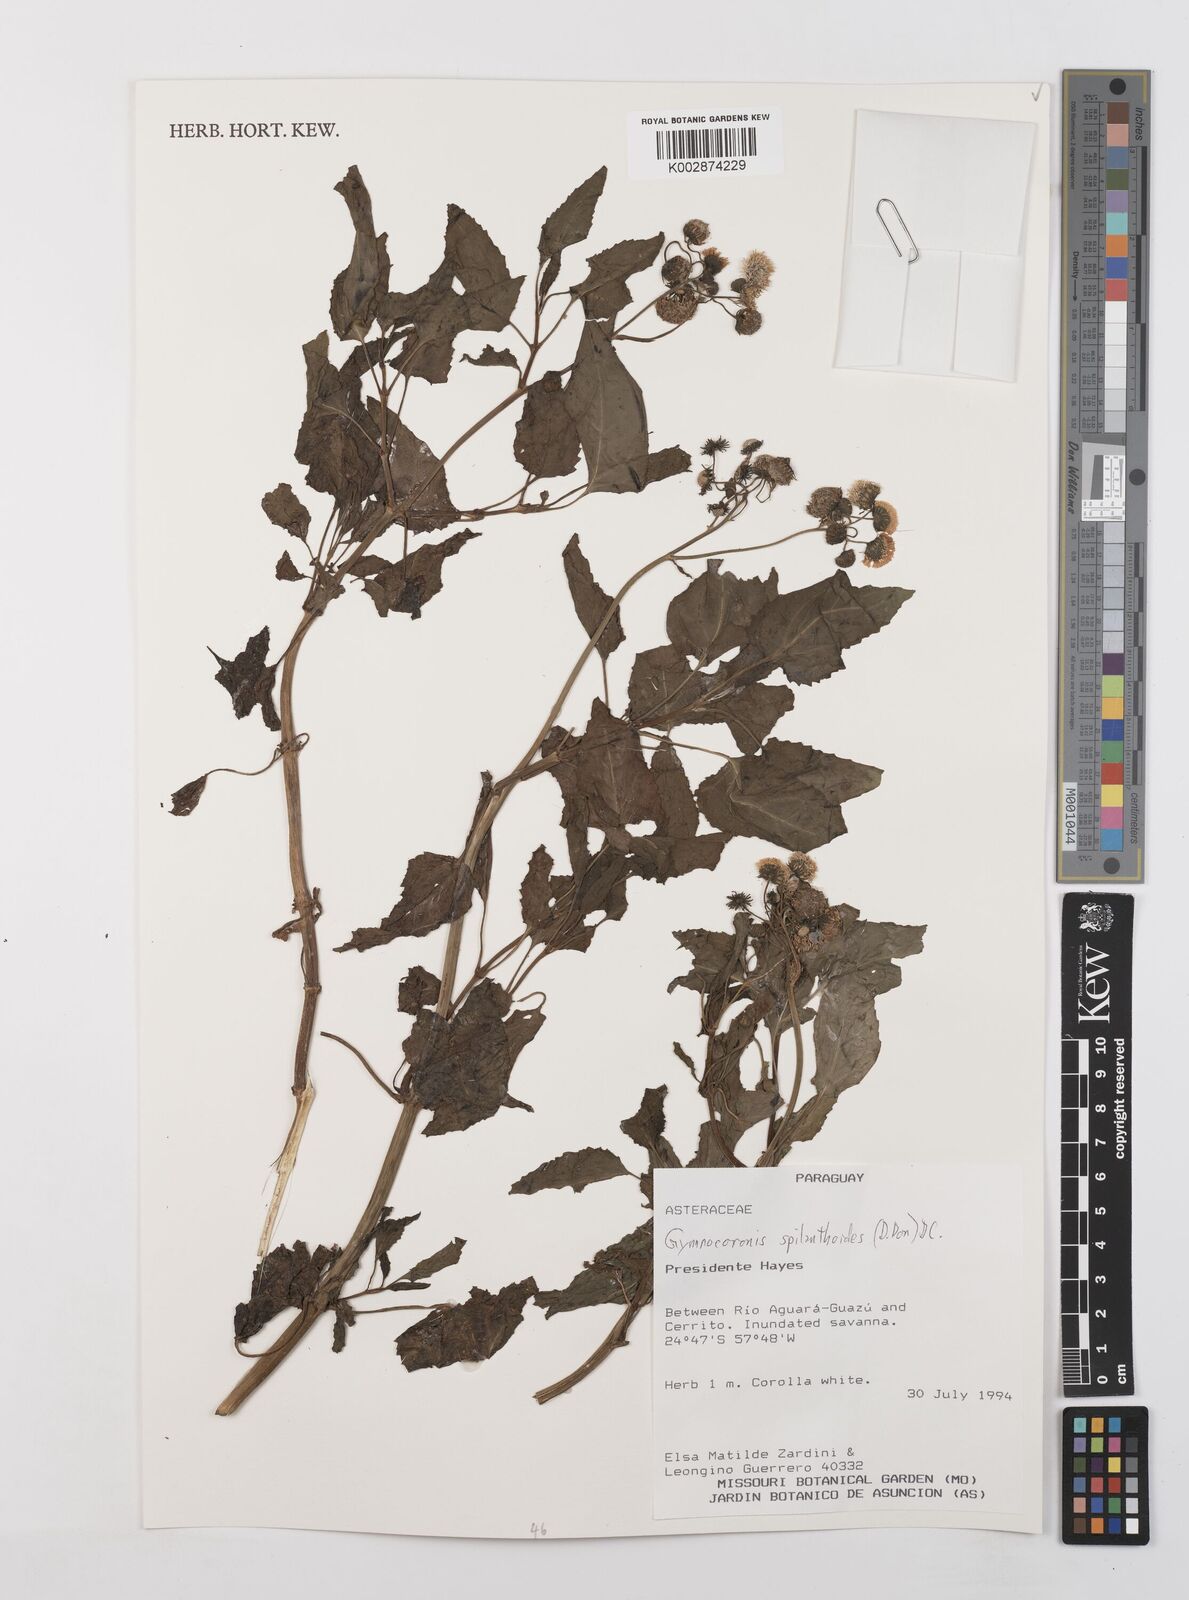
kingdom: Plantae
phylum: Tracheophyta
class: Magnoliopsida
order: Asterales
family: Asteraceae
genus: Gymnocoronis
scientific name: Gymnocoronis spilanthoides
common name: Senegal teaplant
